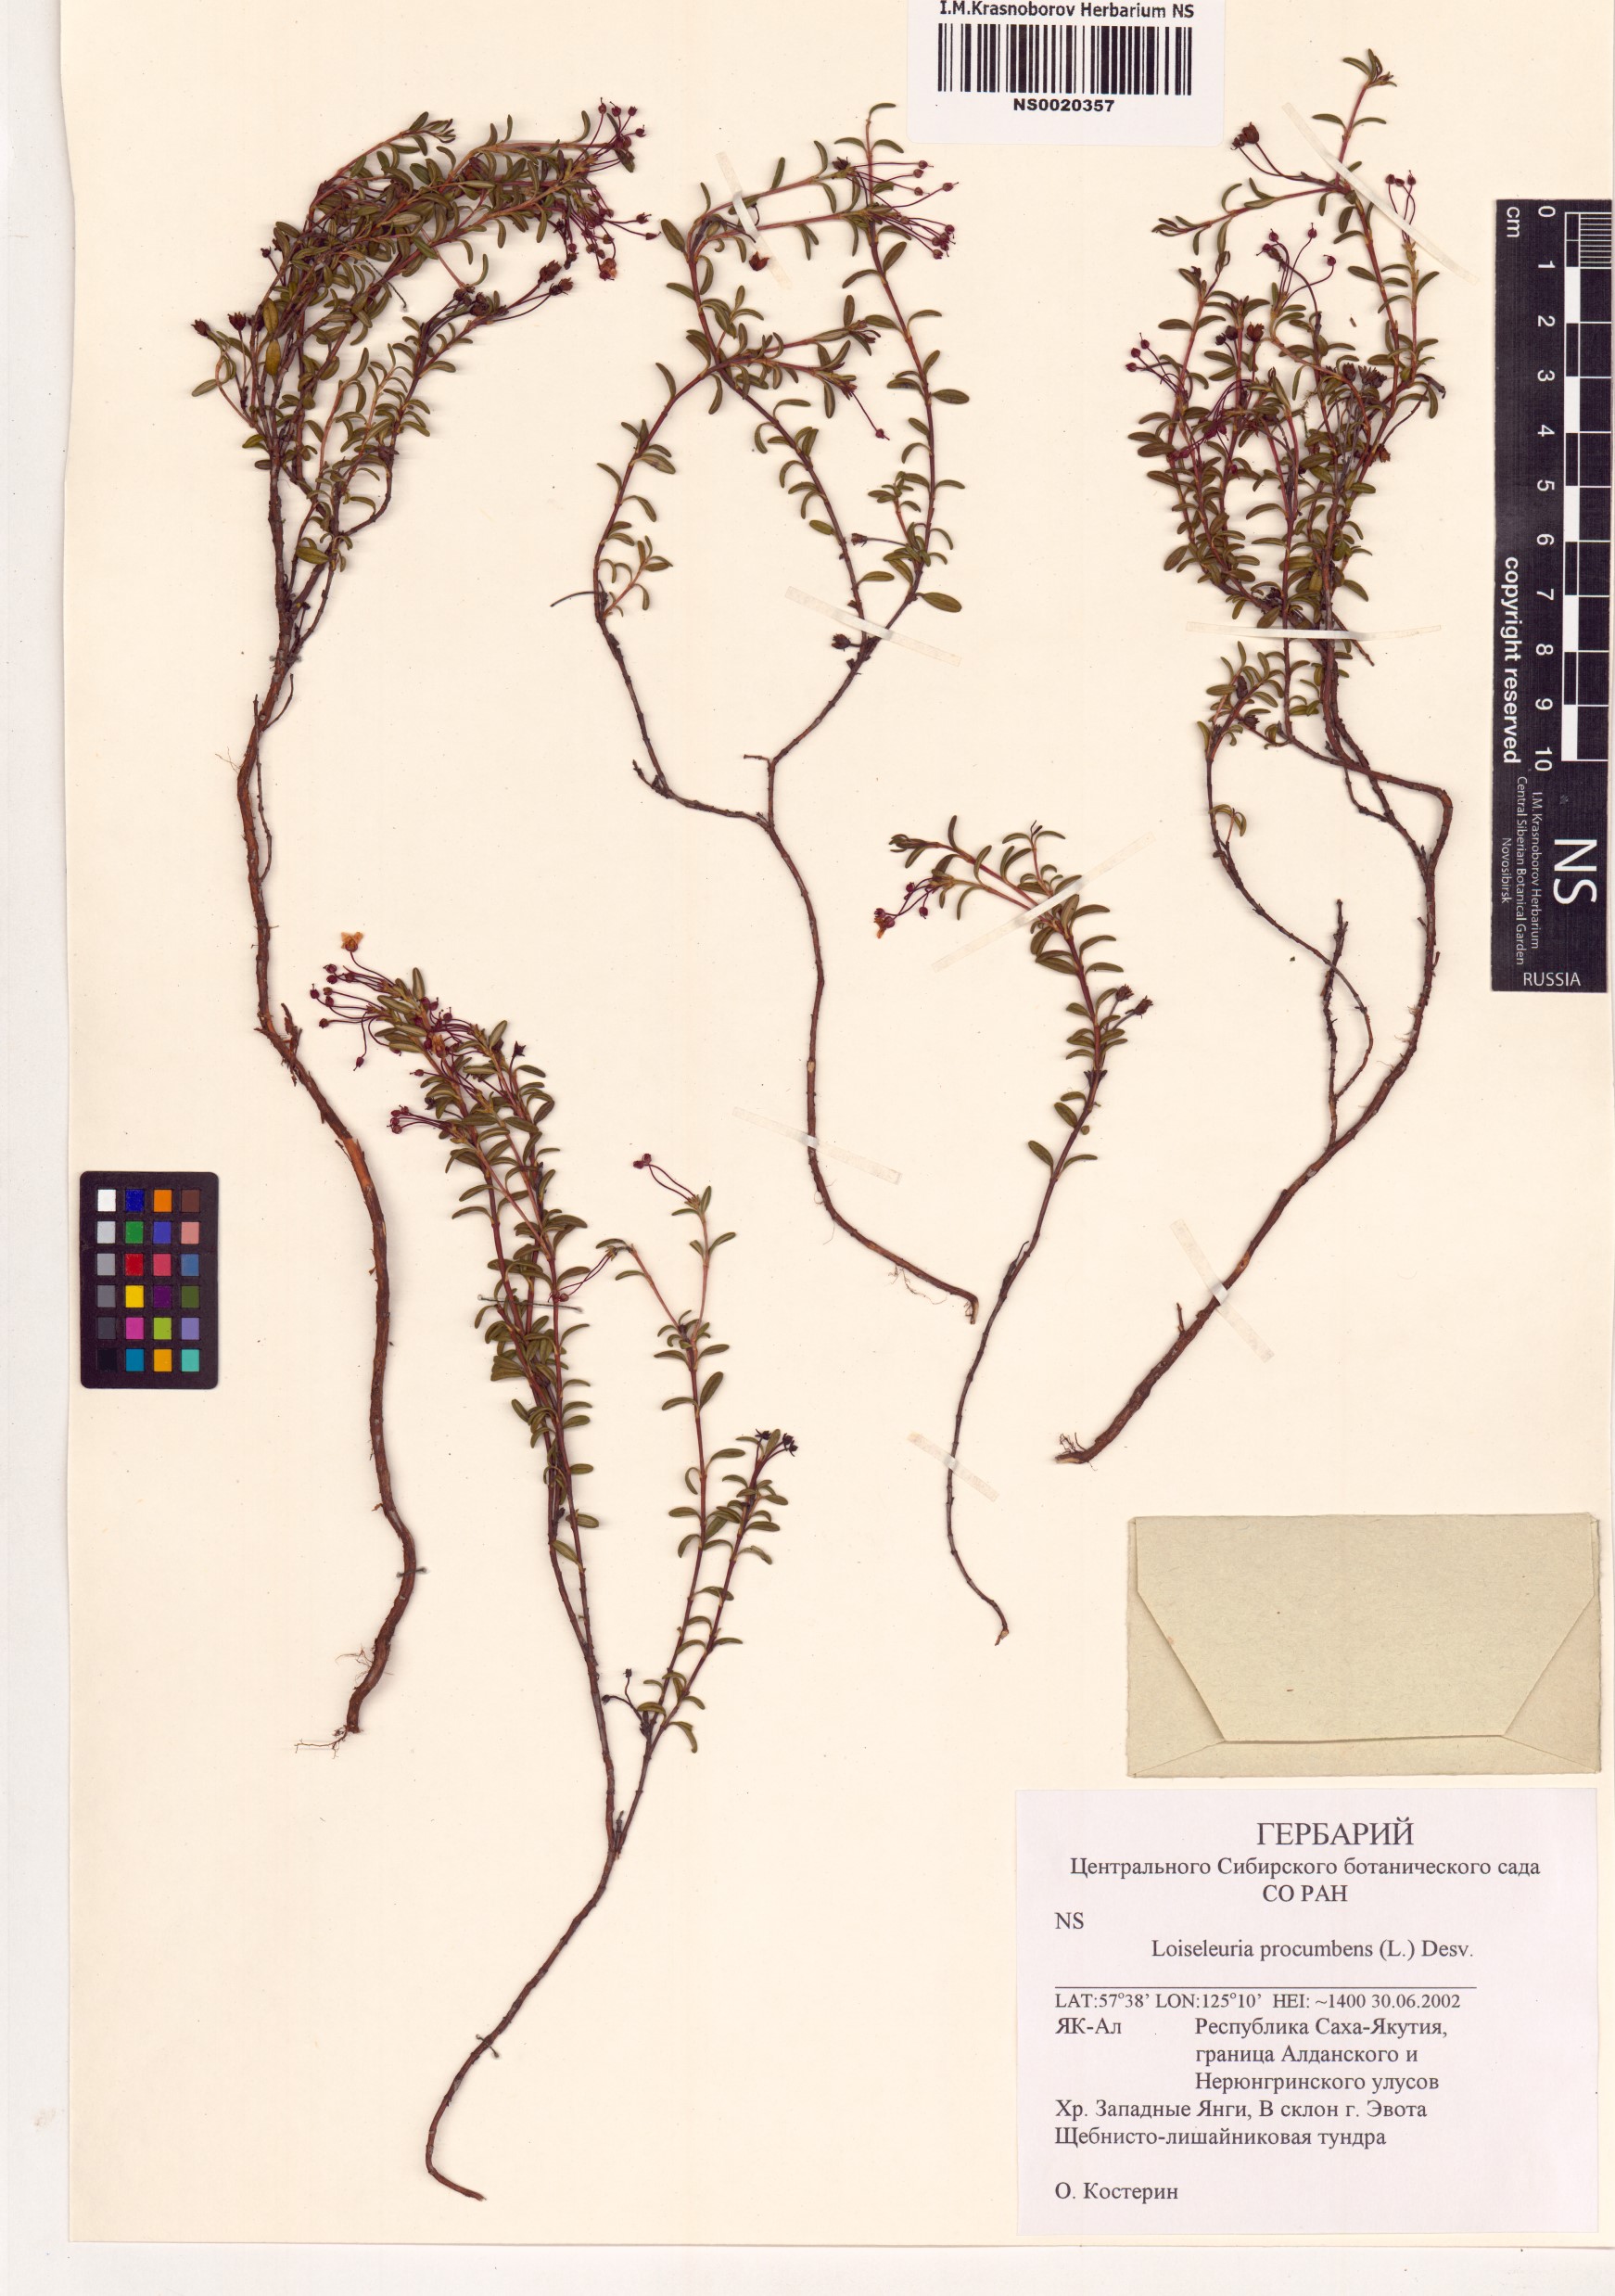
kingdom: Plantae
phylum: Tracheophyta
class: Magnoliopsida
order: Ericales
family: Ericaceae
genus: Kalmia
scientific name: Kalmia procumbens
